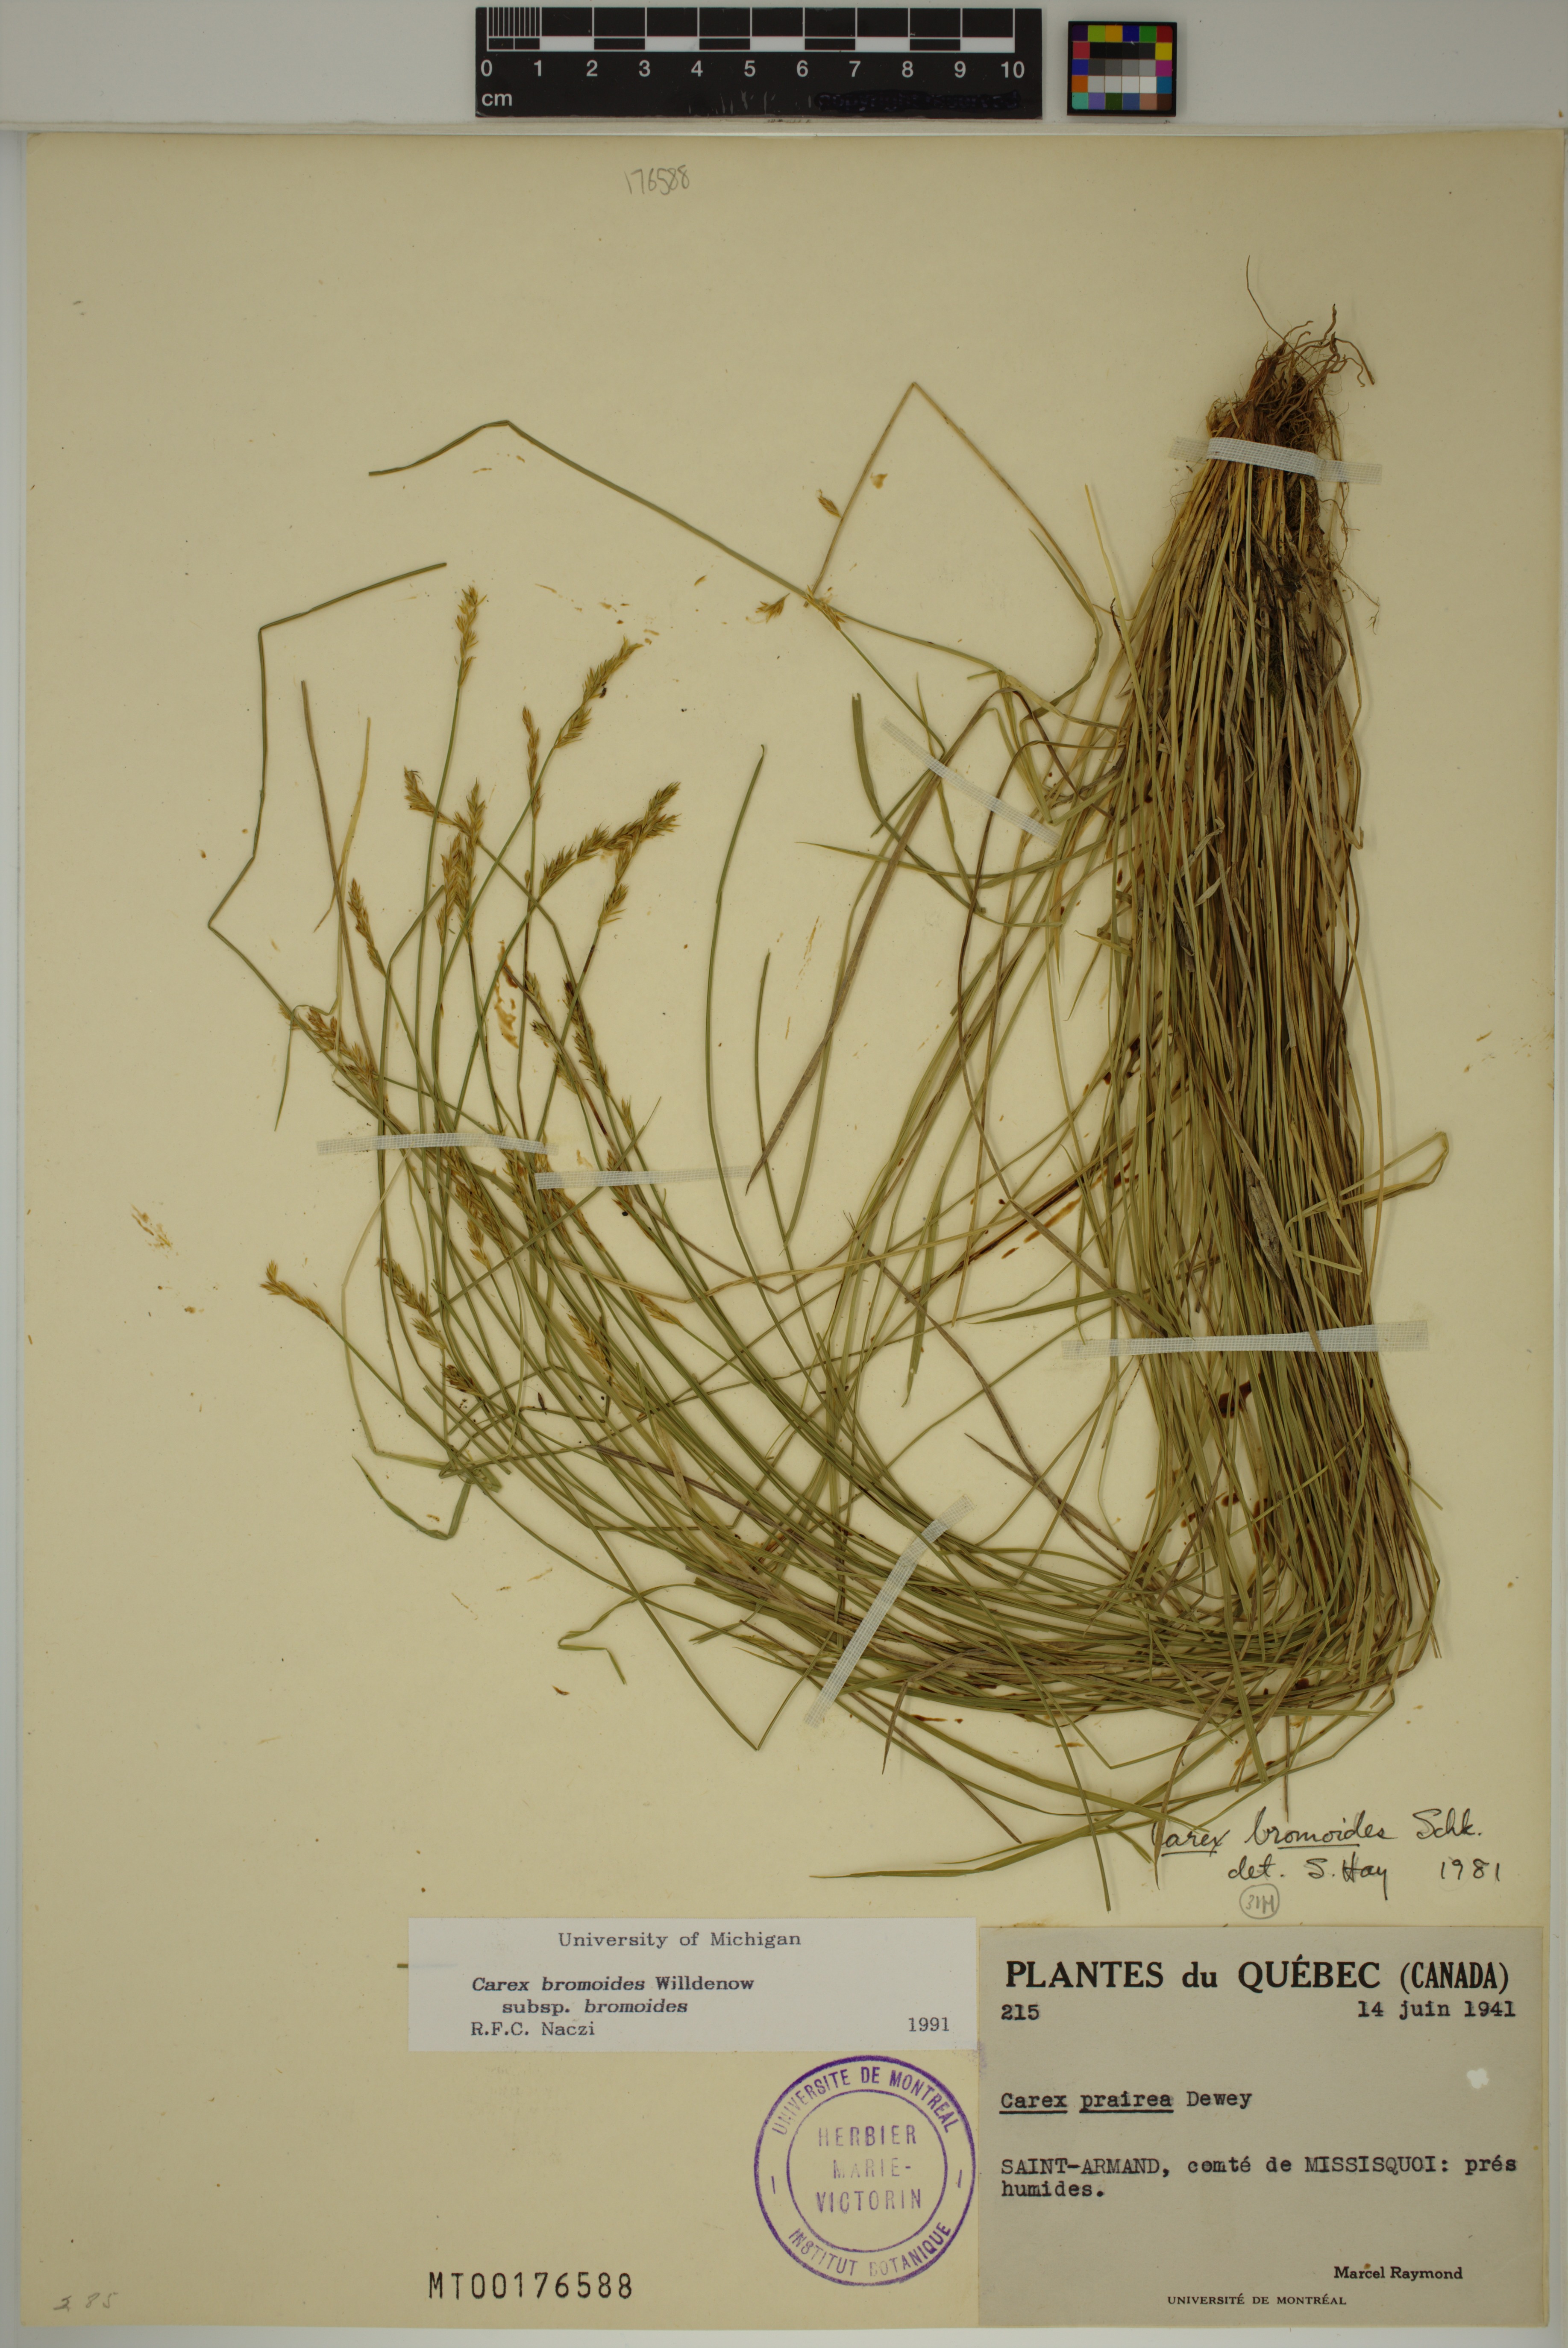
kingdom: Plantae
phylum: Tracheophyta
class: Liliopsida
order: Poales
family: Cyperaceae
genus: Carex
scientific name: Carex bromoides
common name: Brome hummock sedge
